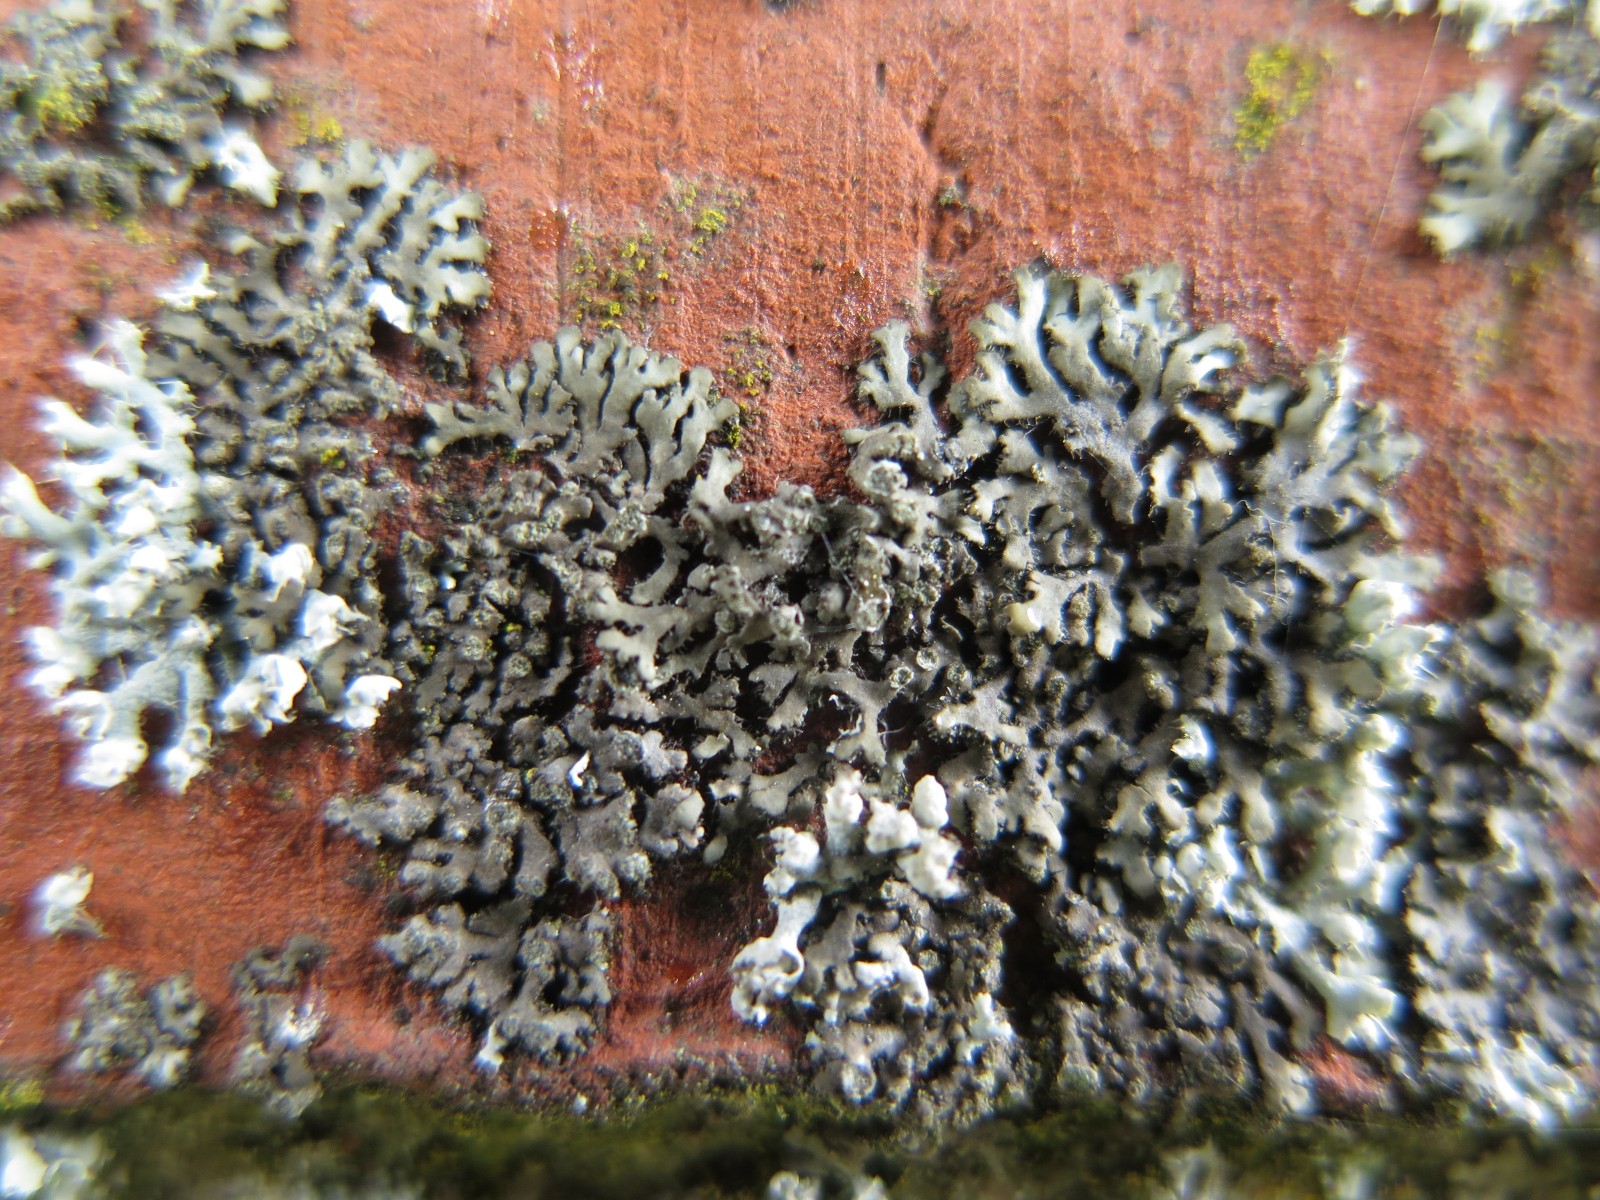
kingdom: Fungi
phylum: Ascomycota
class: Lecanoromycetes
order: Caliciales
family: Physciaceae
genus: Phaeophyscia
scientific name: Phaeophyscia orbicularis
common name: grågrøn rosetlav
